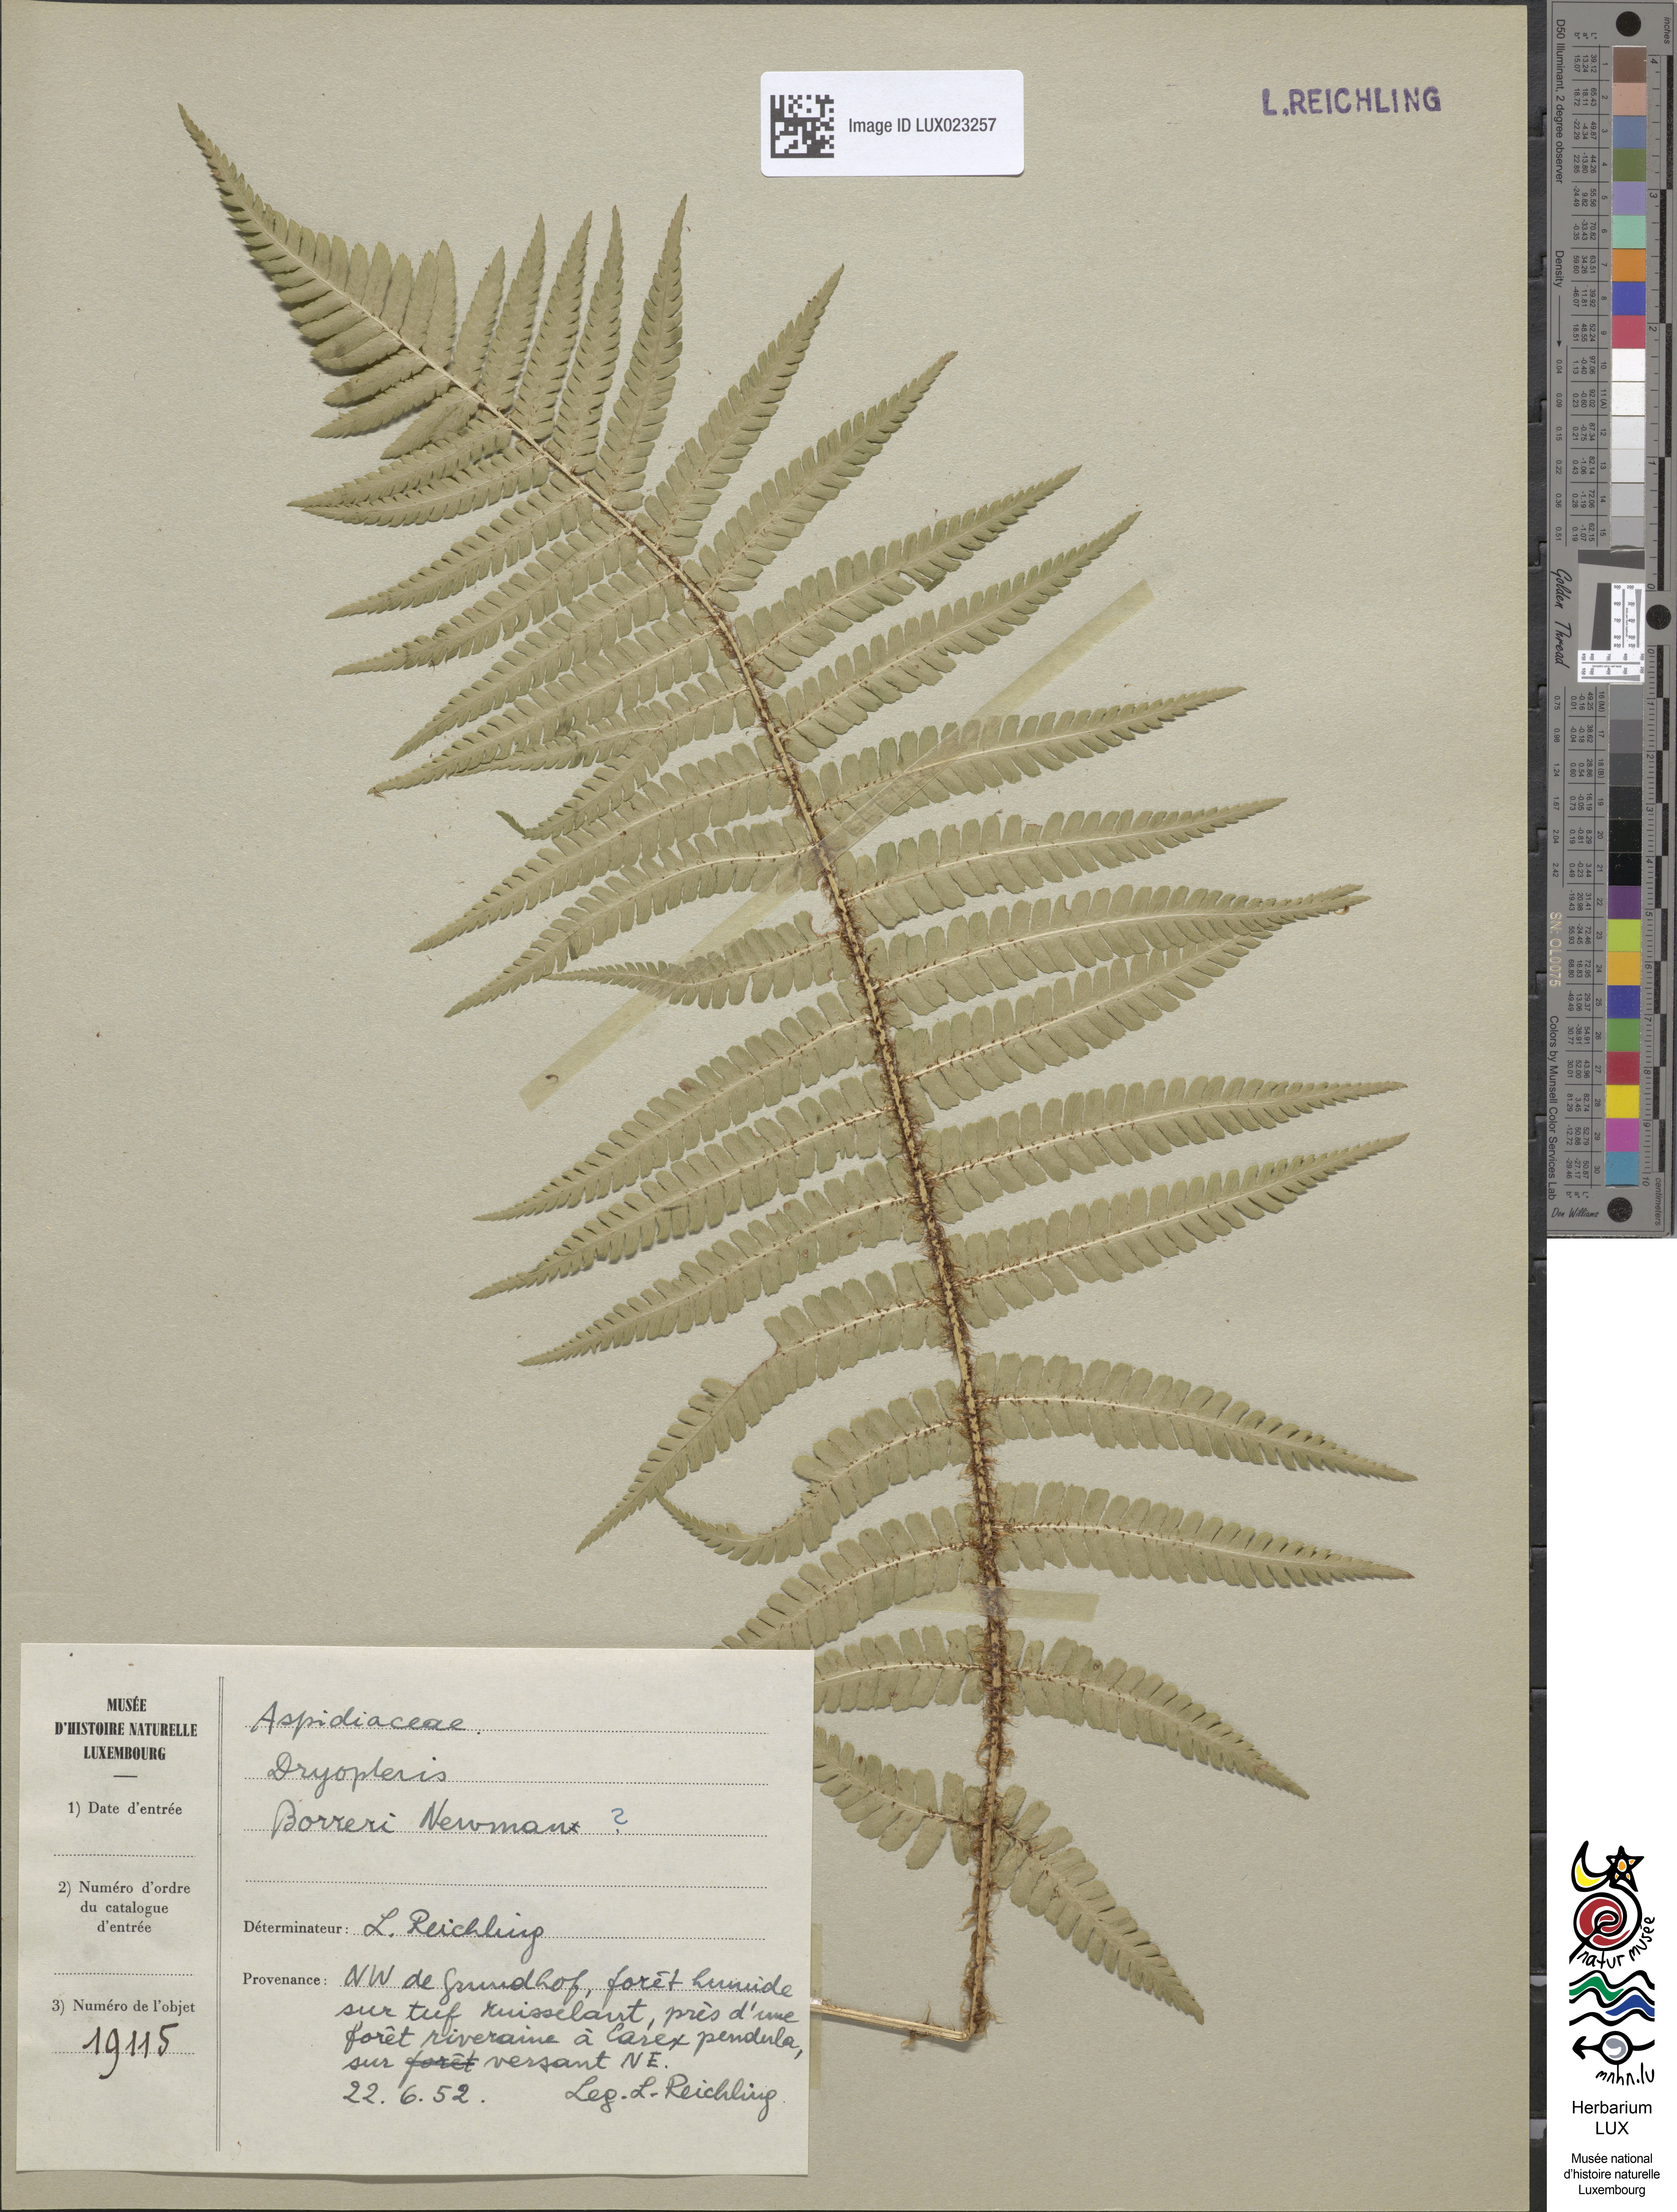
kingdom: Plantae
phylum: Tracheophyta
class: Polypodiopsida
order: Polypodiales
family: Dryopteridaceae
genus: Dryopteris
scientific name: Dryopteris
